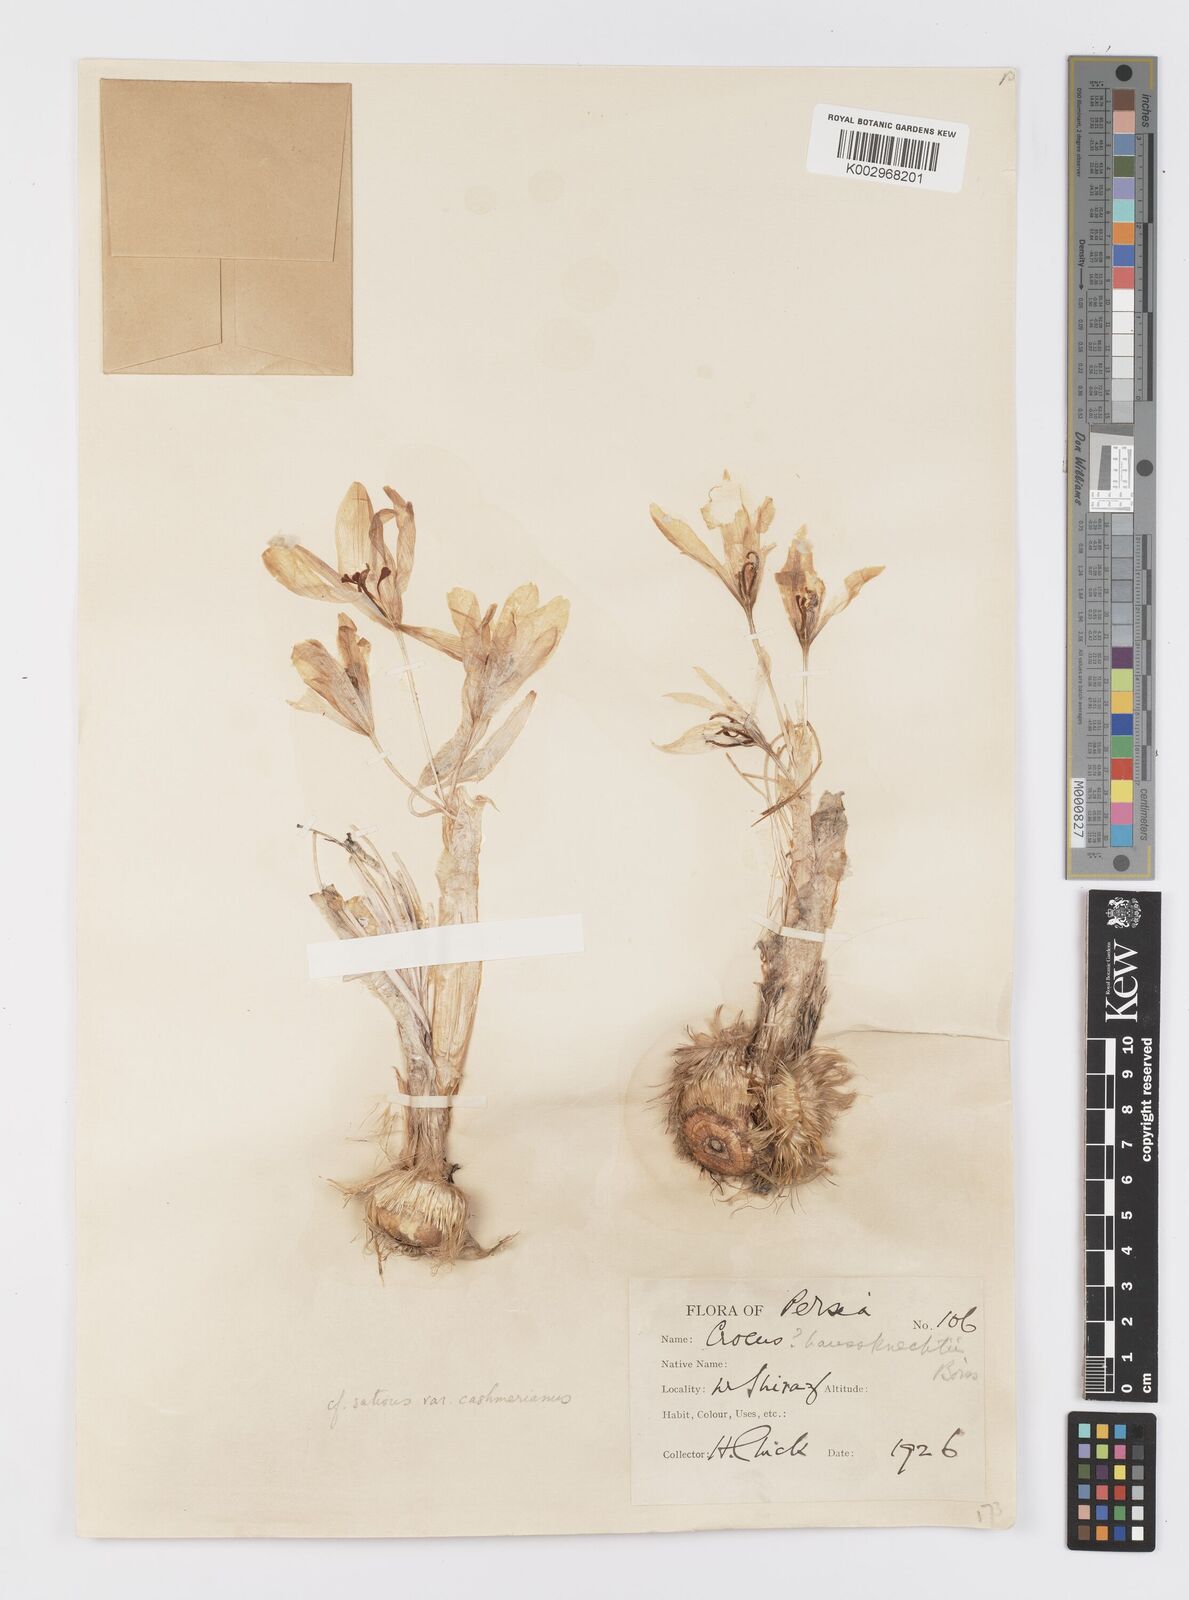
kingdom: Plantae
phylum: Tracheophyta
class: Liliopsida
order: Asparagales
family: Iridaceae
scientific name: Iridaceae
